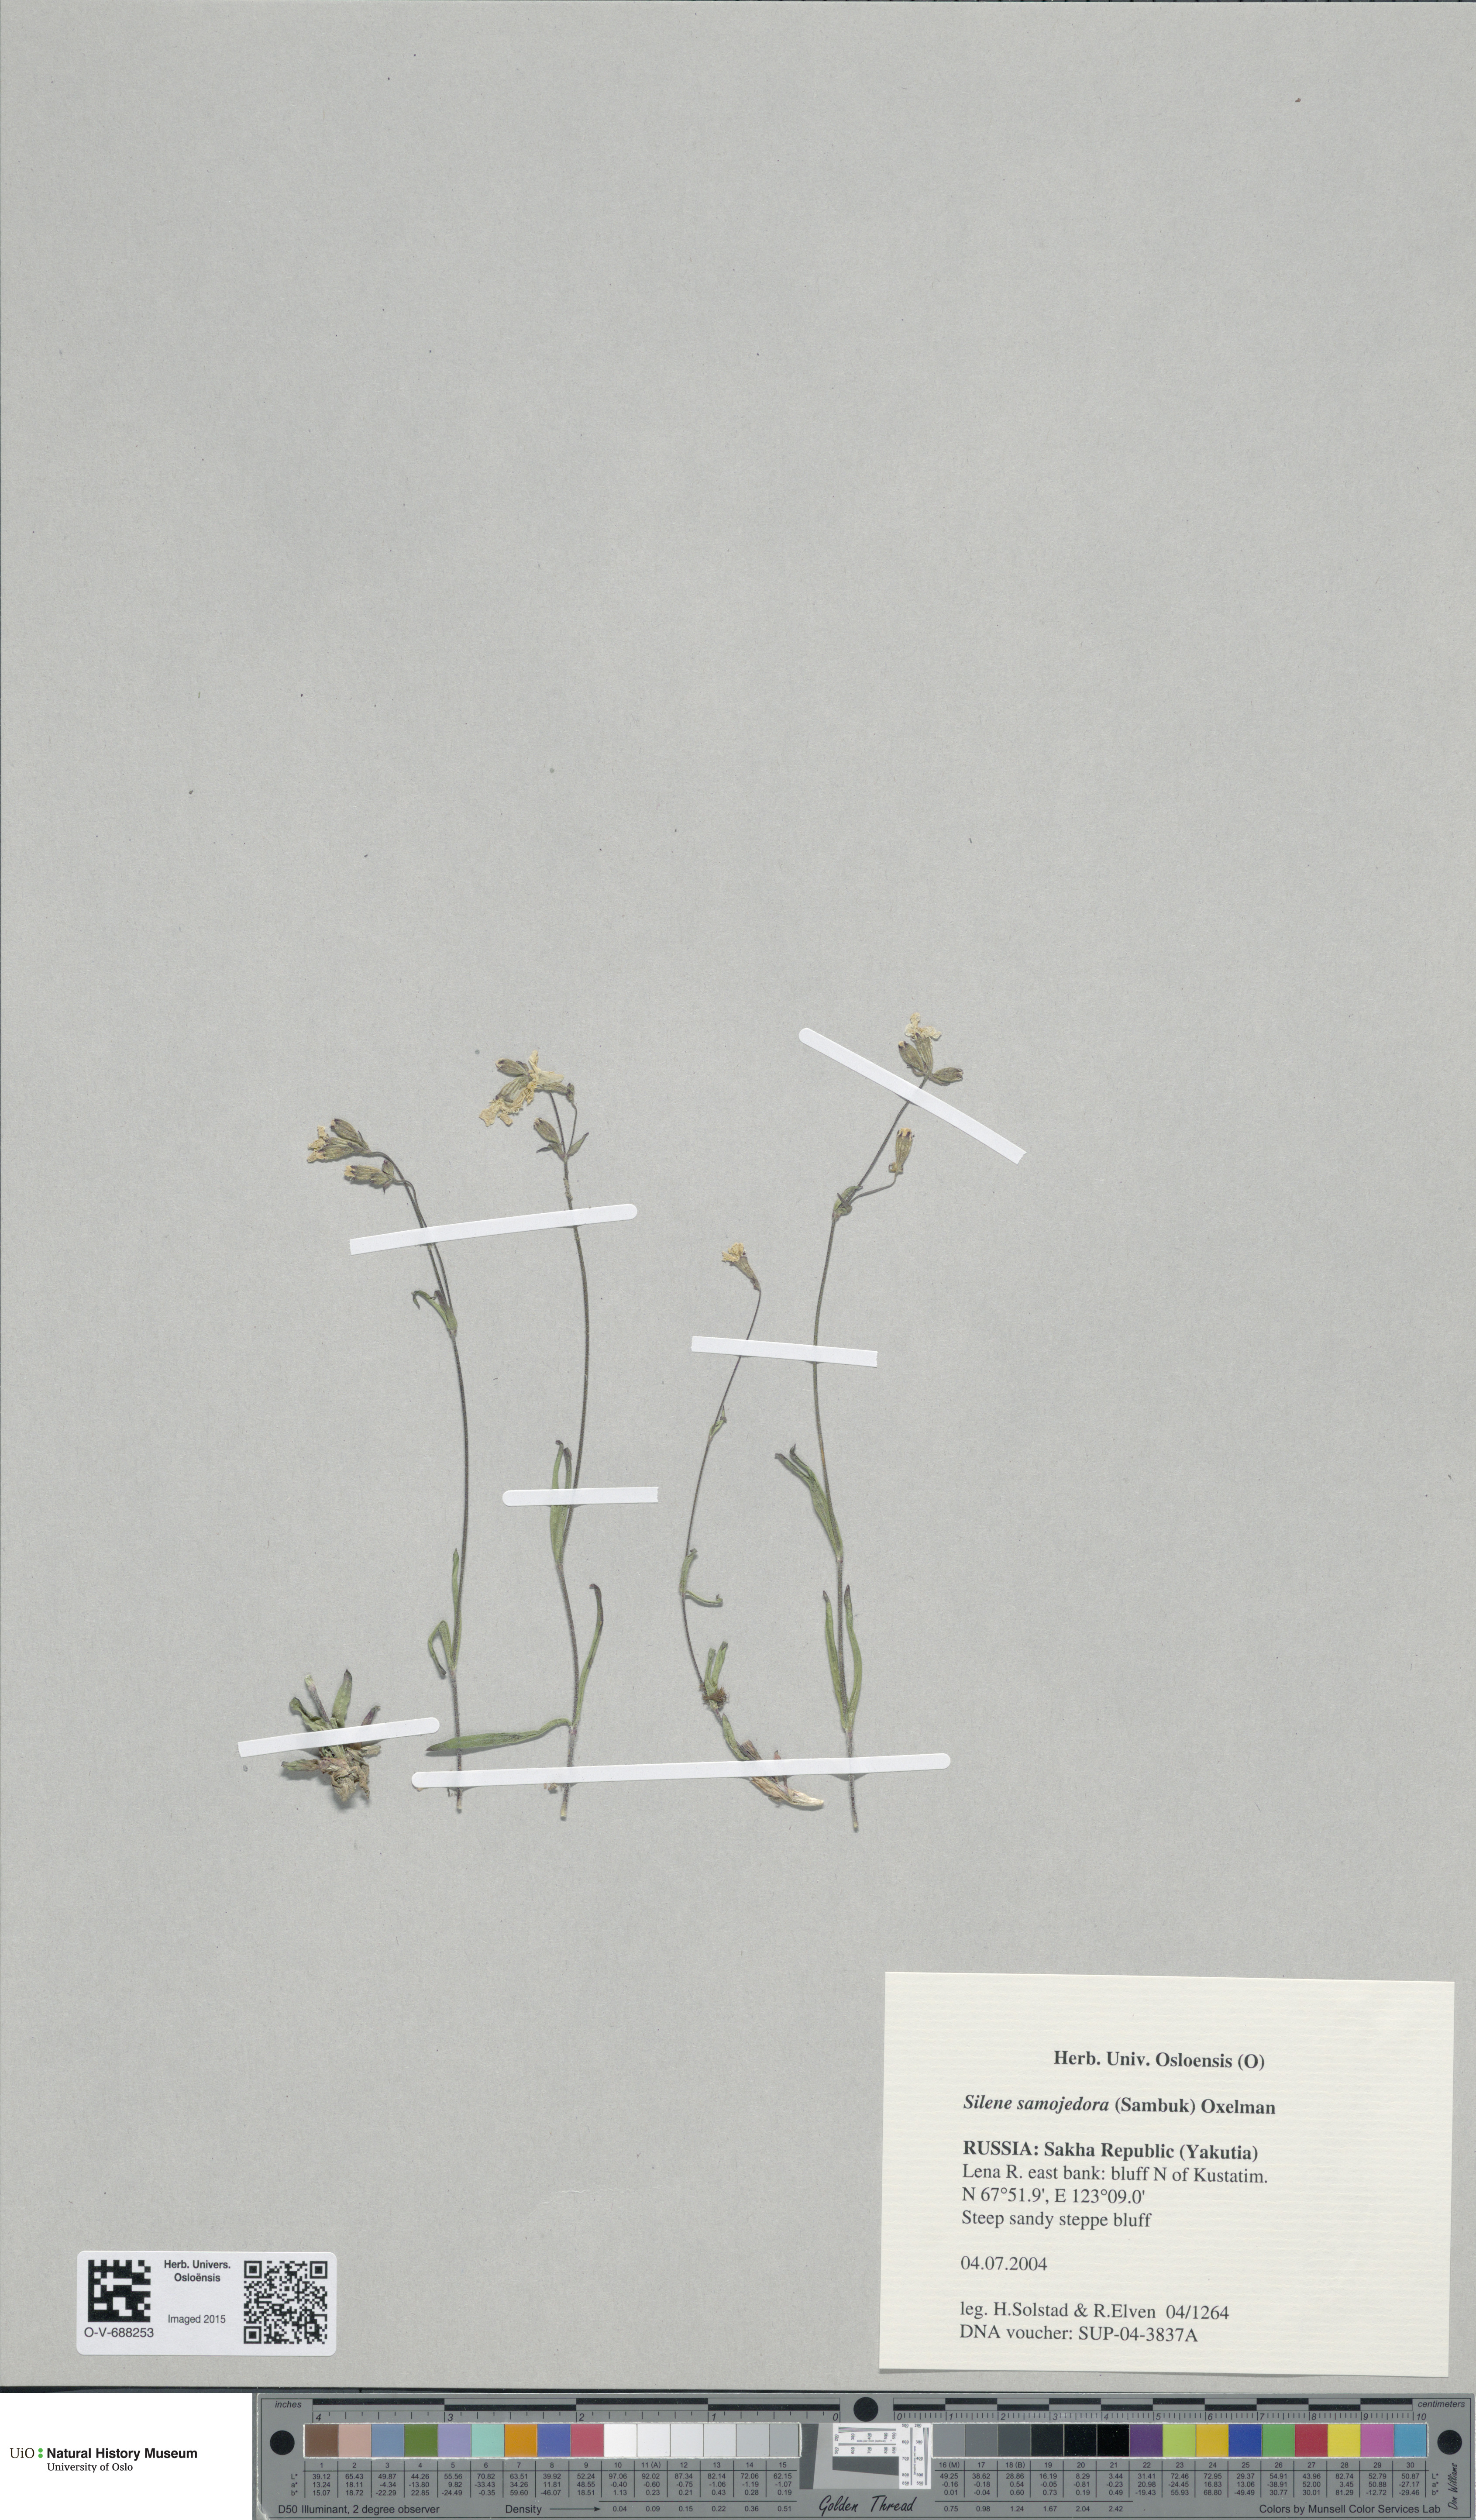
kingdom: Plantae
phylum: Tracheophyta
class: Magnoliopsida
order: Caryophyllales
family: Caryophyllaceae
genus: Silene
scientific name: Silene samojedorum
